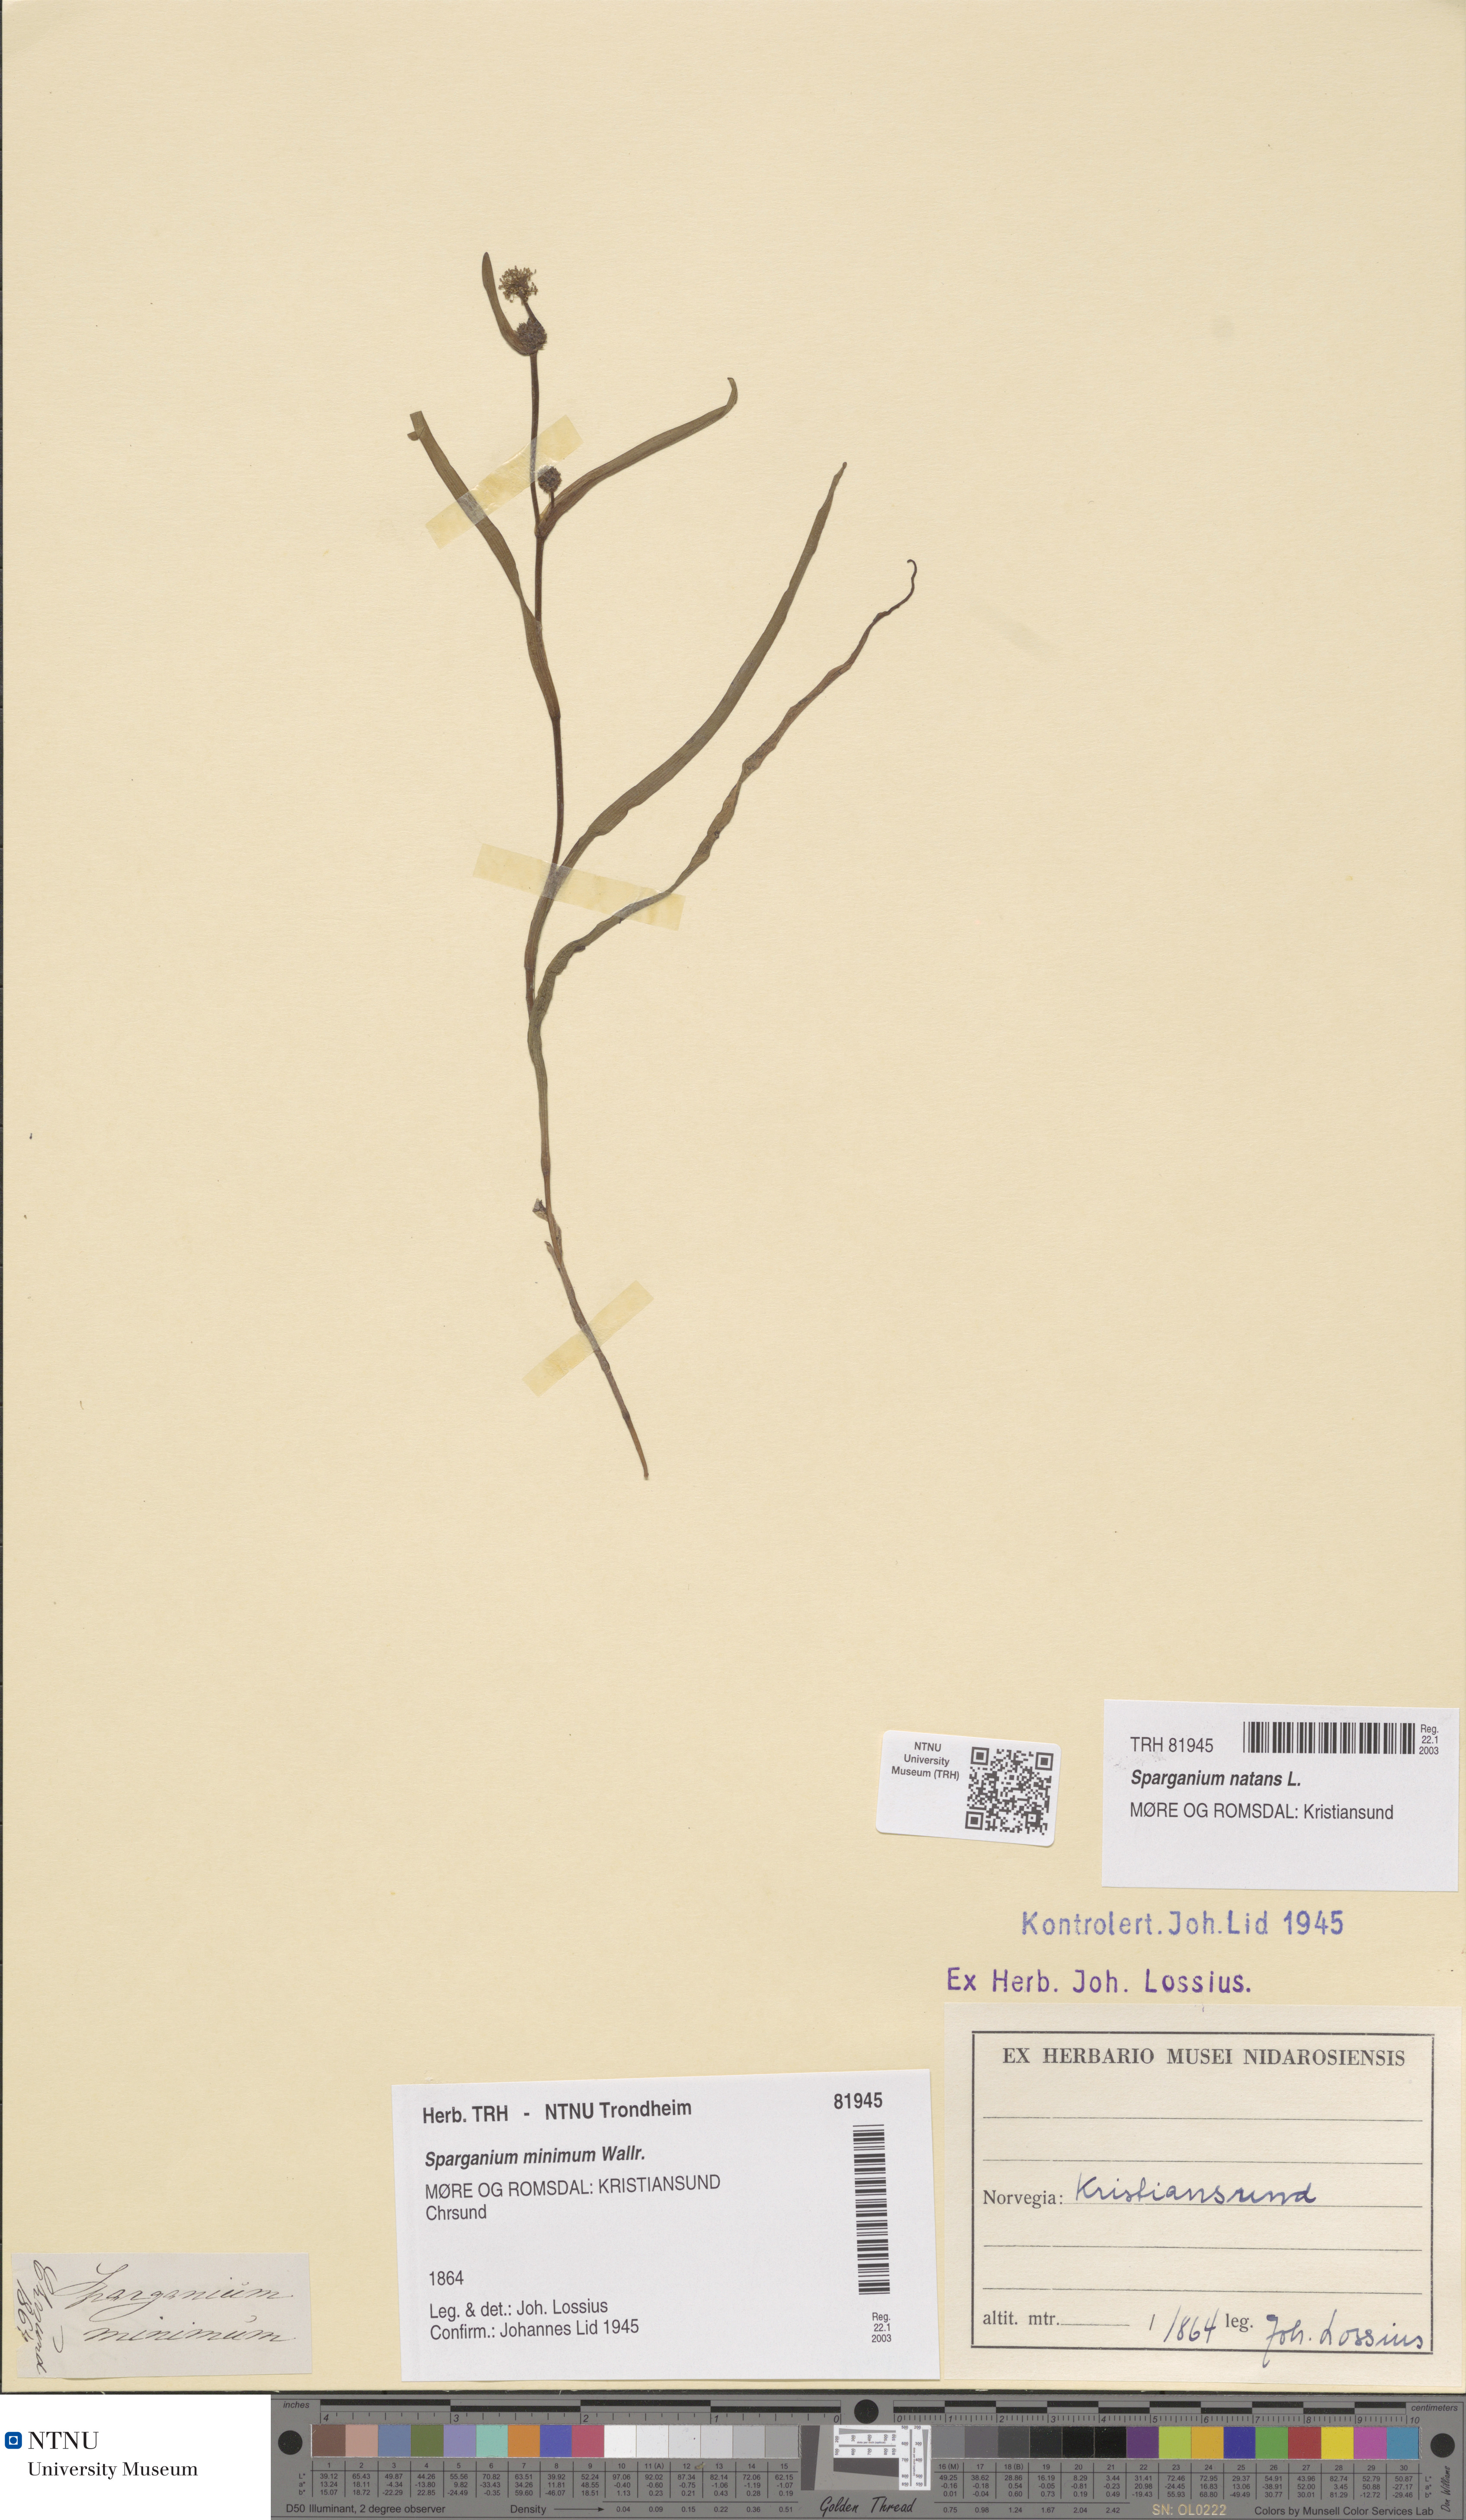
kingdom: Plantae
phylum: Tracheophyta
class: Liliopsida
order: Poales
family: Typhaceae
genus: Sparganium
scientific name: Sparganium natans
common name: Least bur-reed
